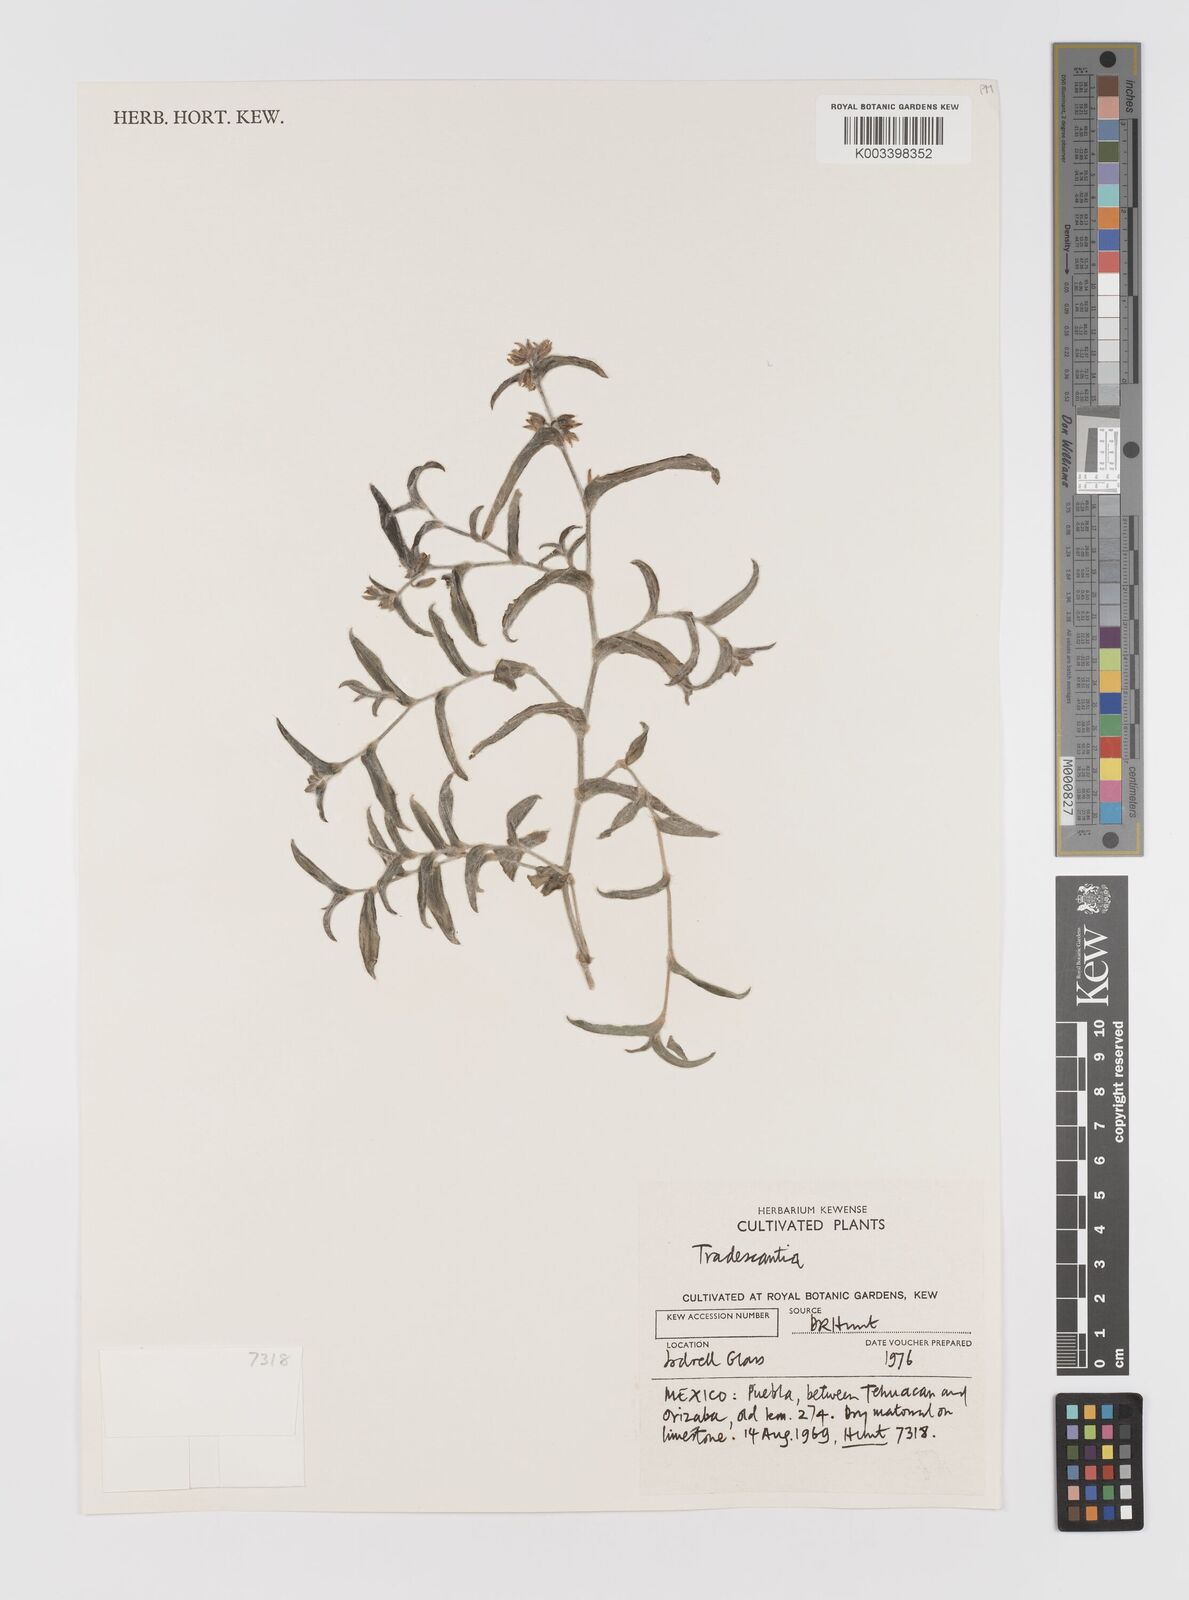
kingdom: Plantae
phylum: Tracheophyta
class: Liliopsida
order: Commelinales
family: Commelinaceae
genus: Tradescantia
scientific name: Tradescantia monosperma
